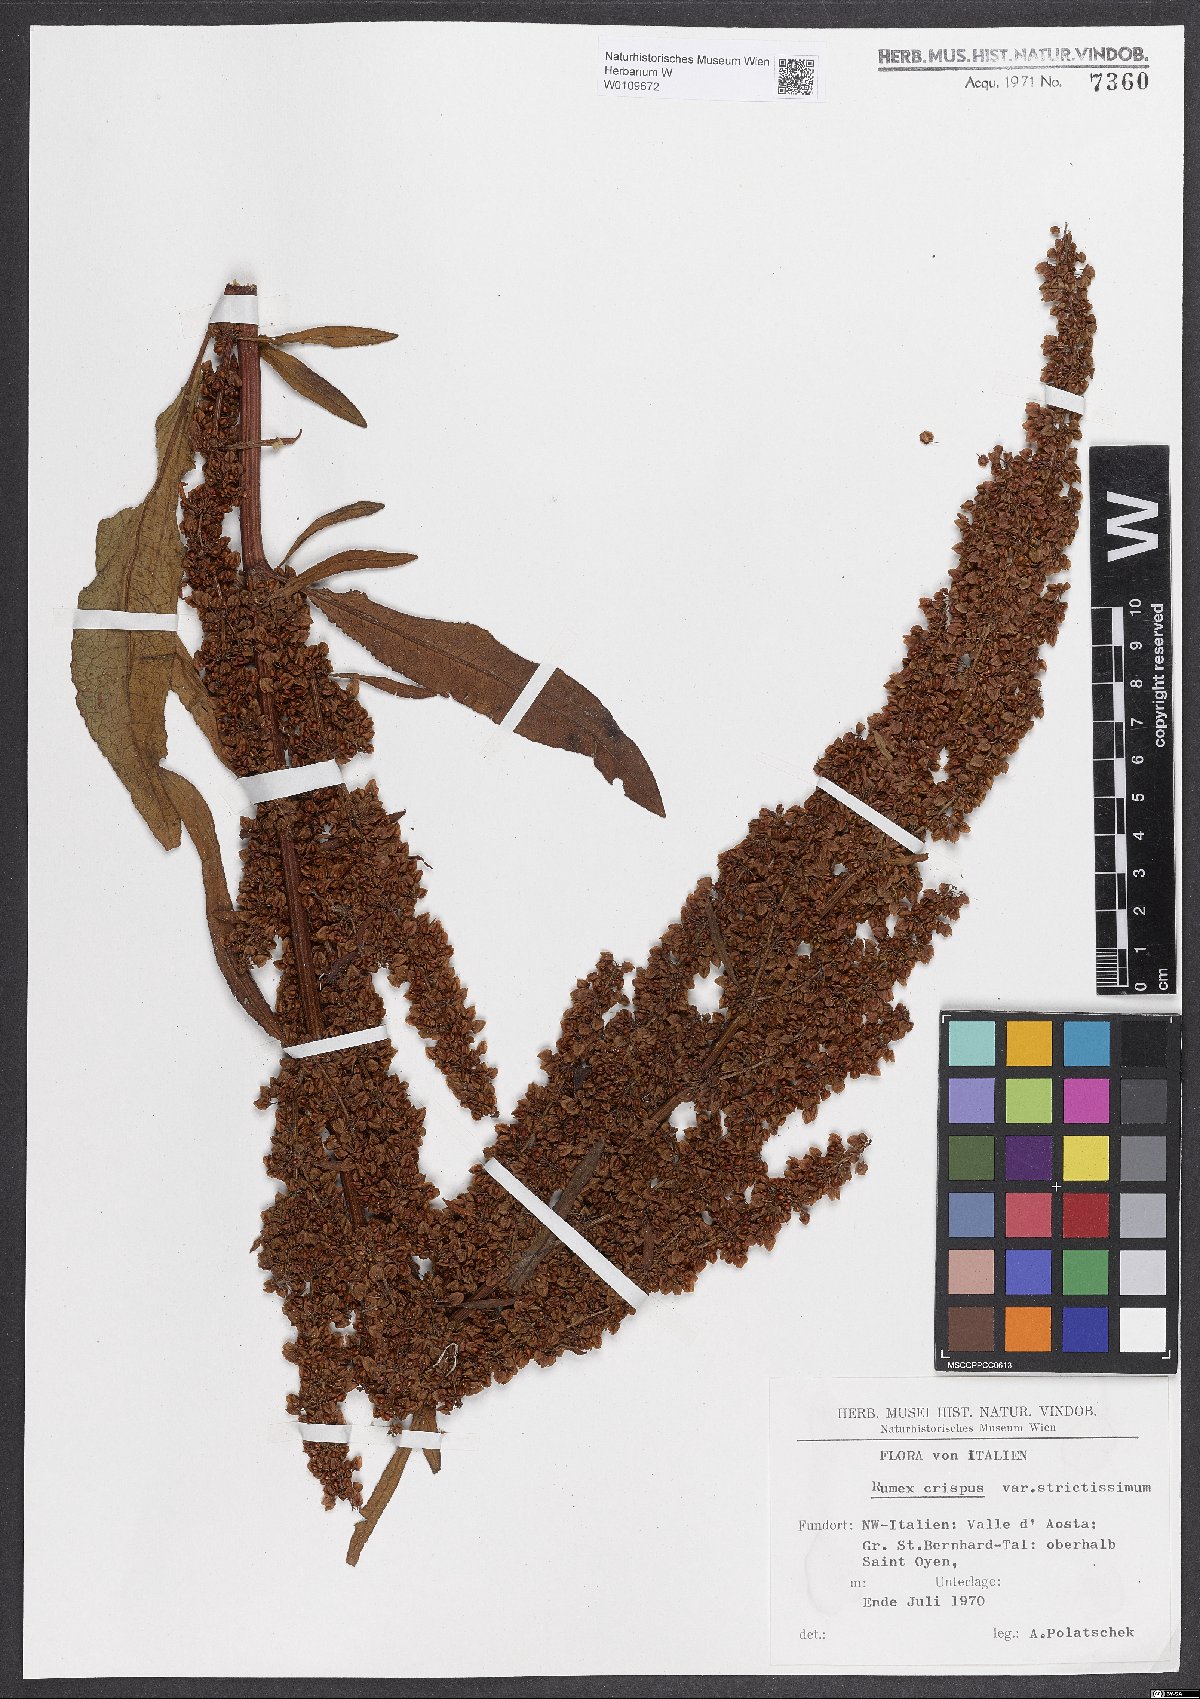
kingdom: Plantae
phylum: Tracheophyta
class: Magnoliopsida
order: Caryophyllales
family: Polygonaceae
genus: Rumex
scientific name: Rumex crispus
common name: Curled dock
